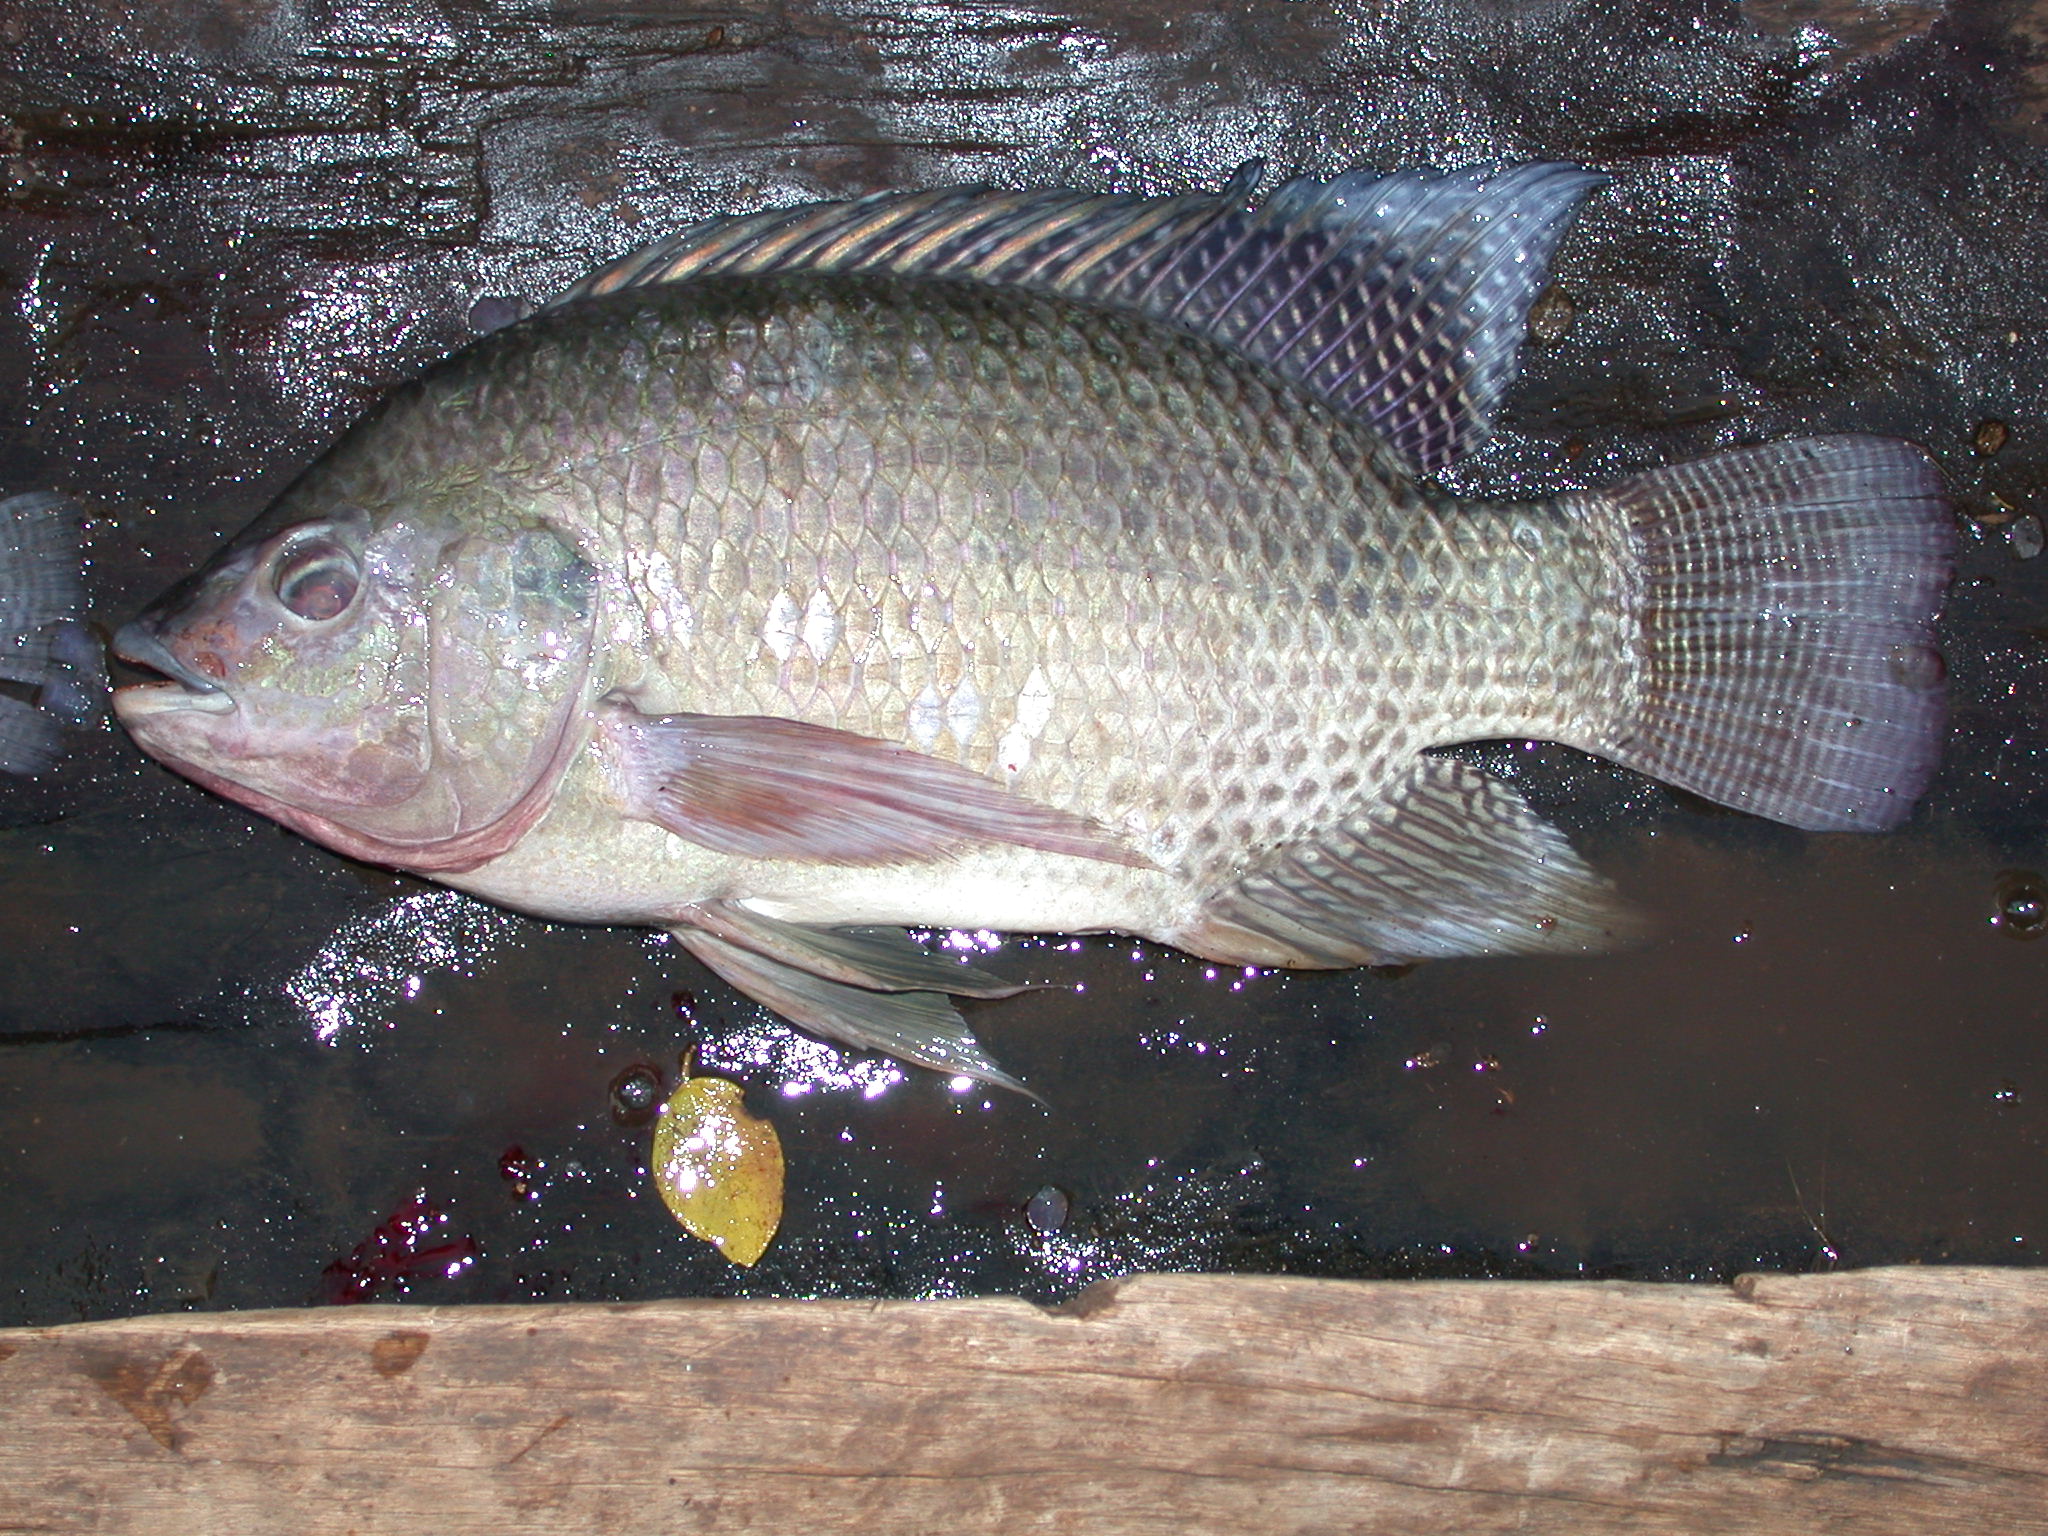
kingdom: Animalia
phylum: Chordata
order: Perciformes
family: Cichlidae
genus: Oreochromis
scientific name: Oreochromis niloticus
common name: Nile tilapia
